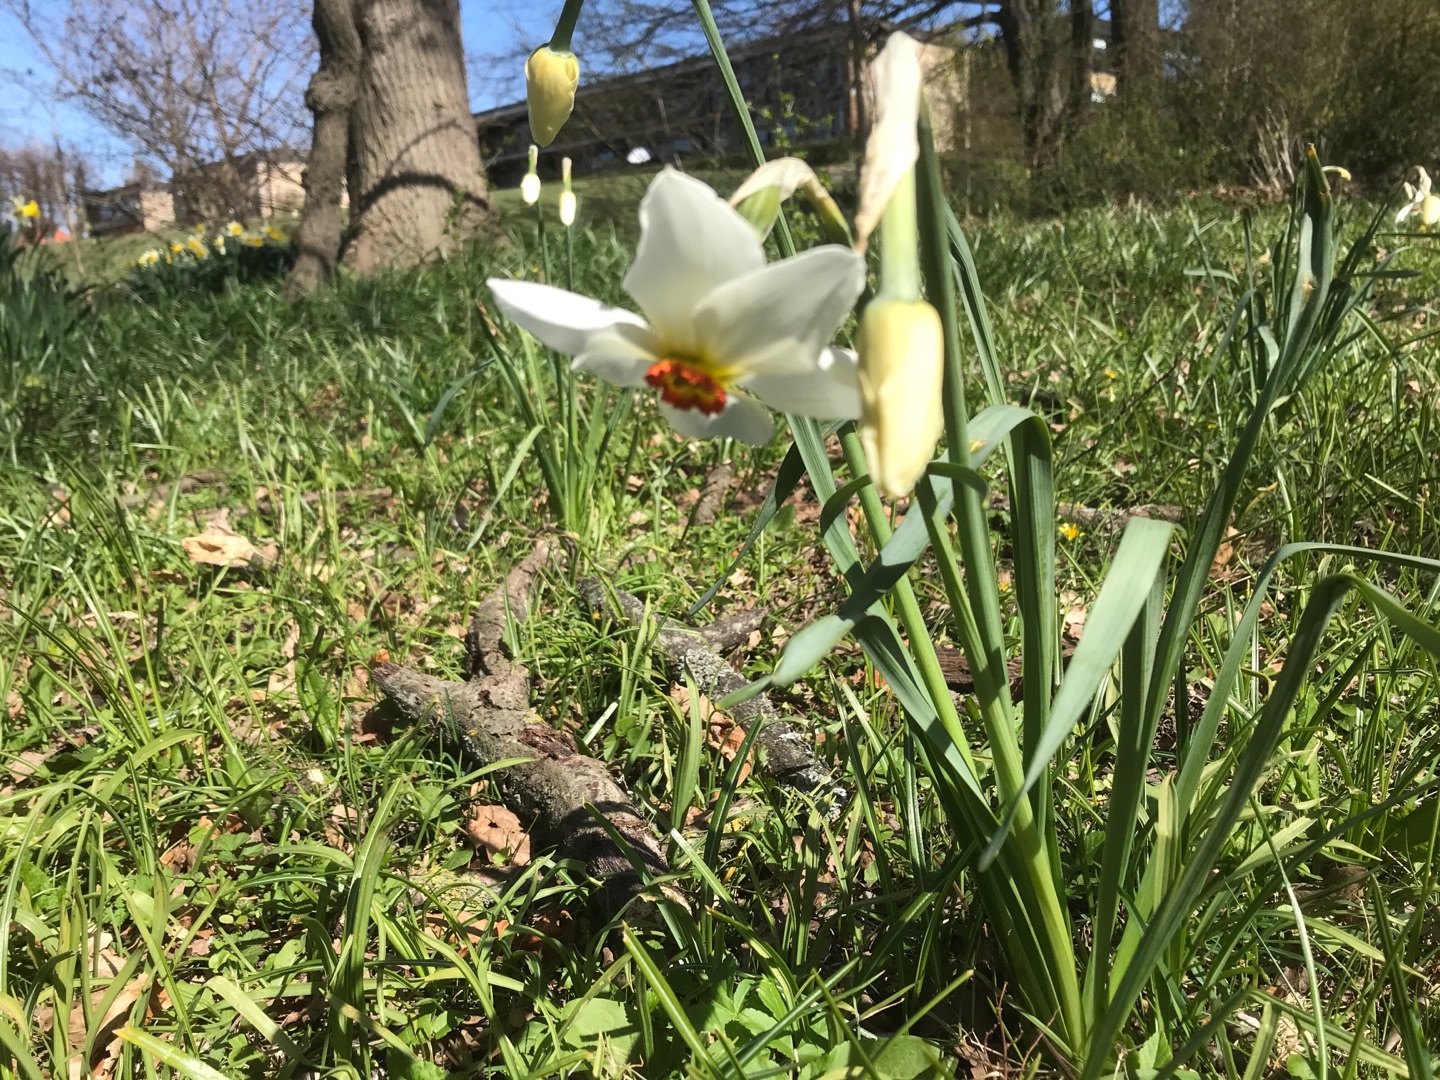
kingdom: Plantae
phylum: Tracheophyta
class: Liliopsida
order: Asparagales
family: Amaryllidaceae
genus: Narcissus
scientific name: Narcissus poeticus
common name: Pinselilje
